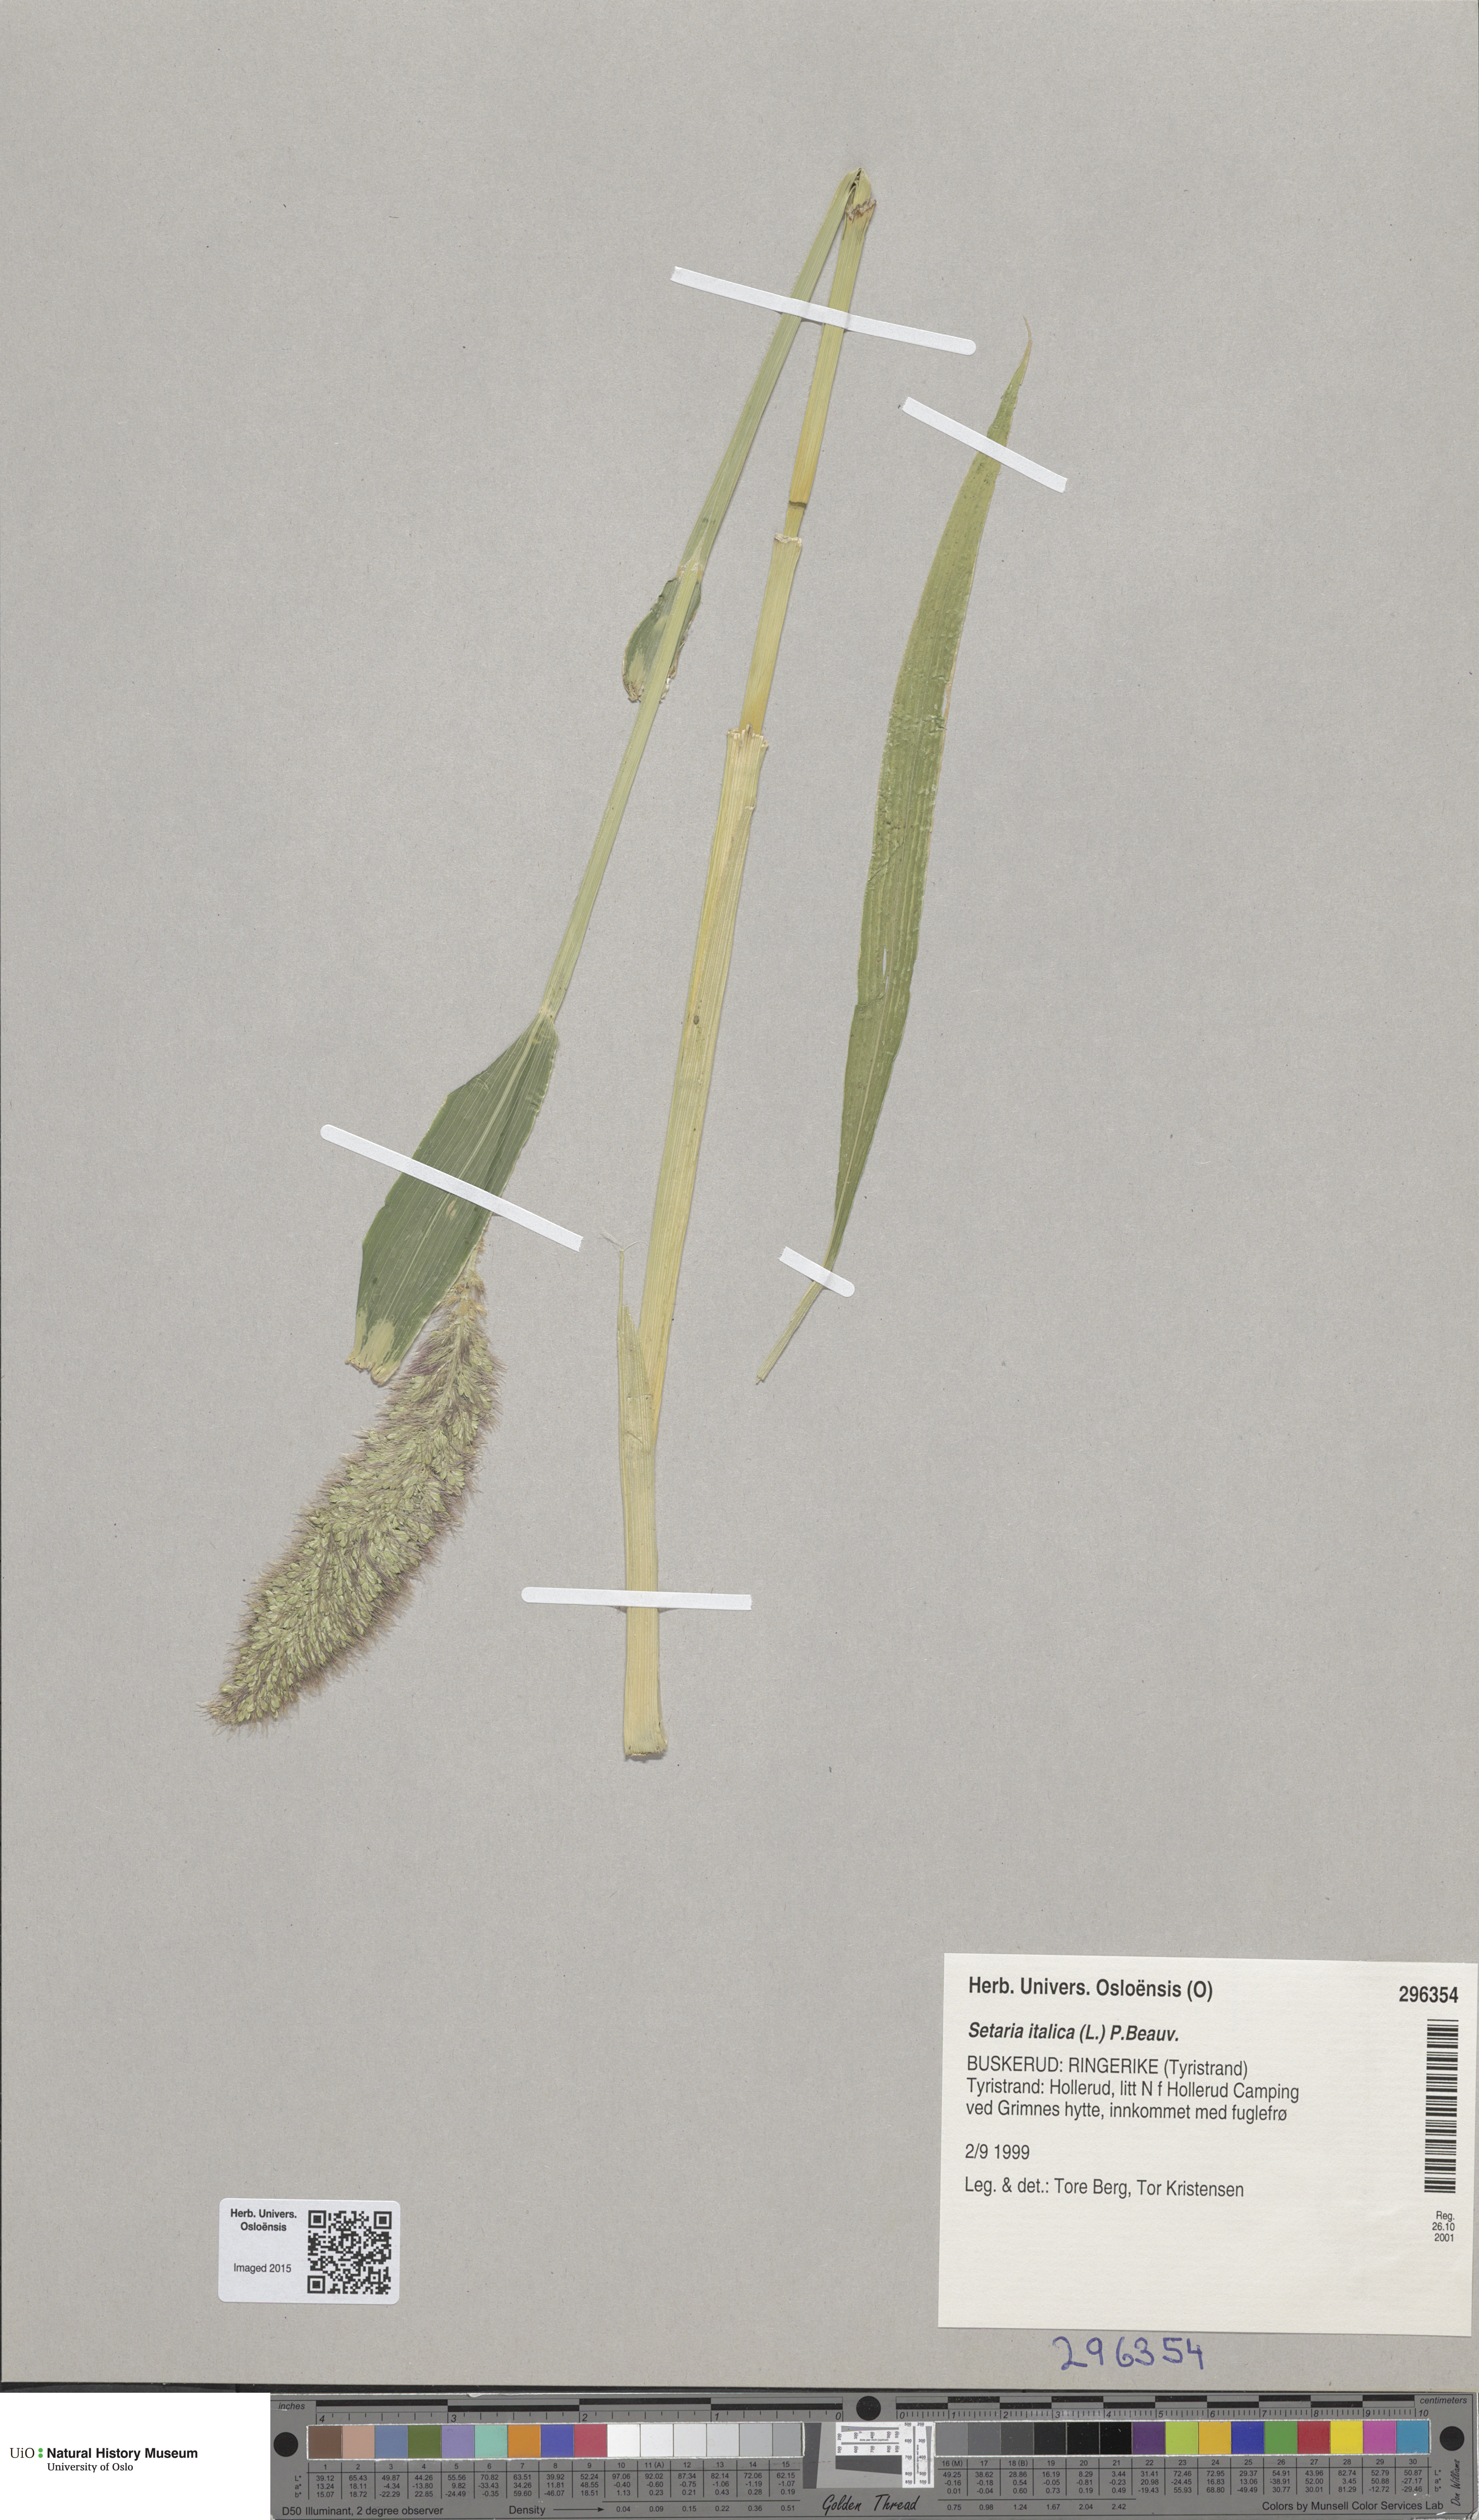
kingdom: Plantae
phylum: Tracheophyta
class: Liliopsida
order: Poales
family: Poaceae
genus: Setaria
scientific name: Setaria italica
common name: Foxtail bristle-grass
